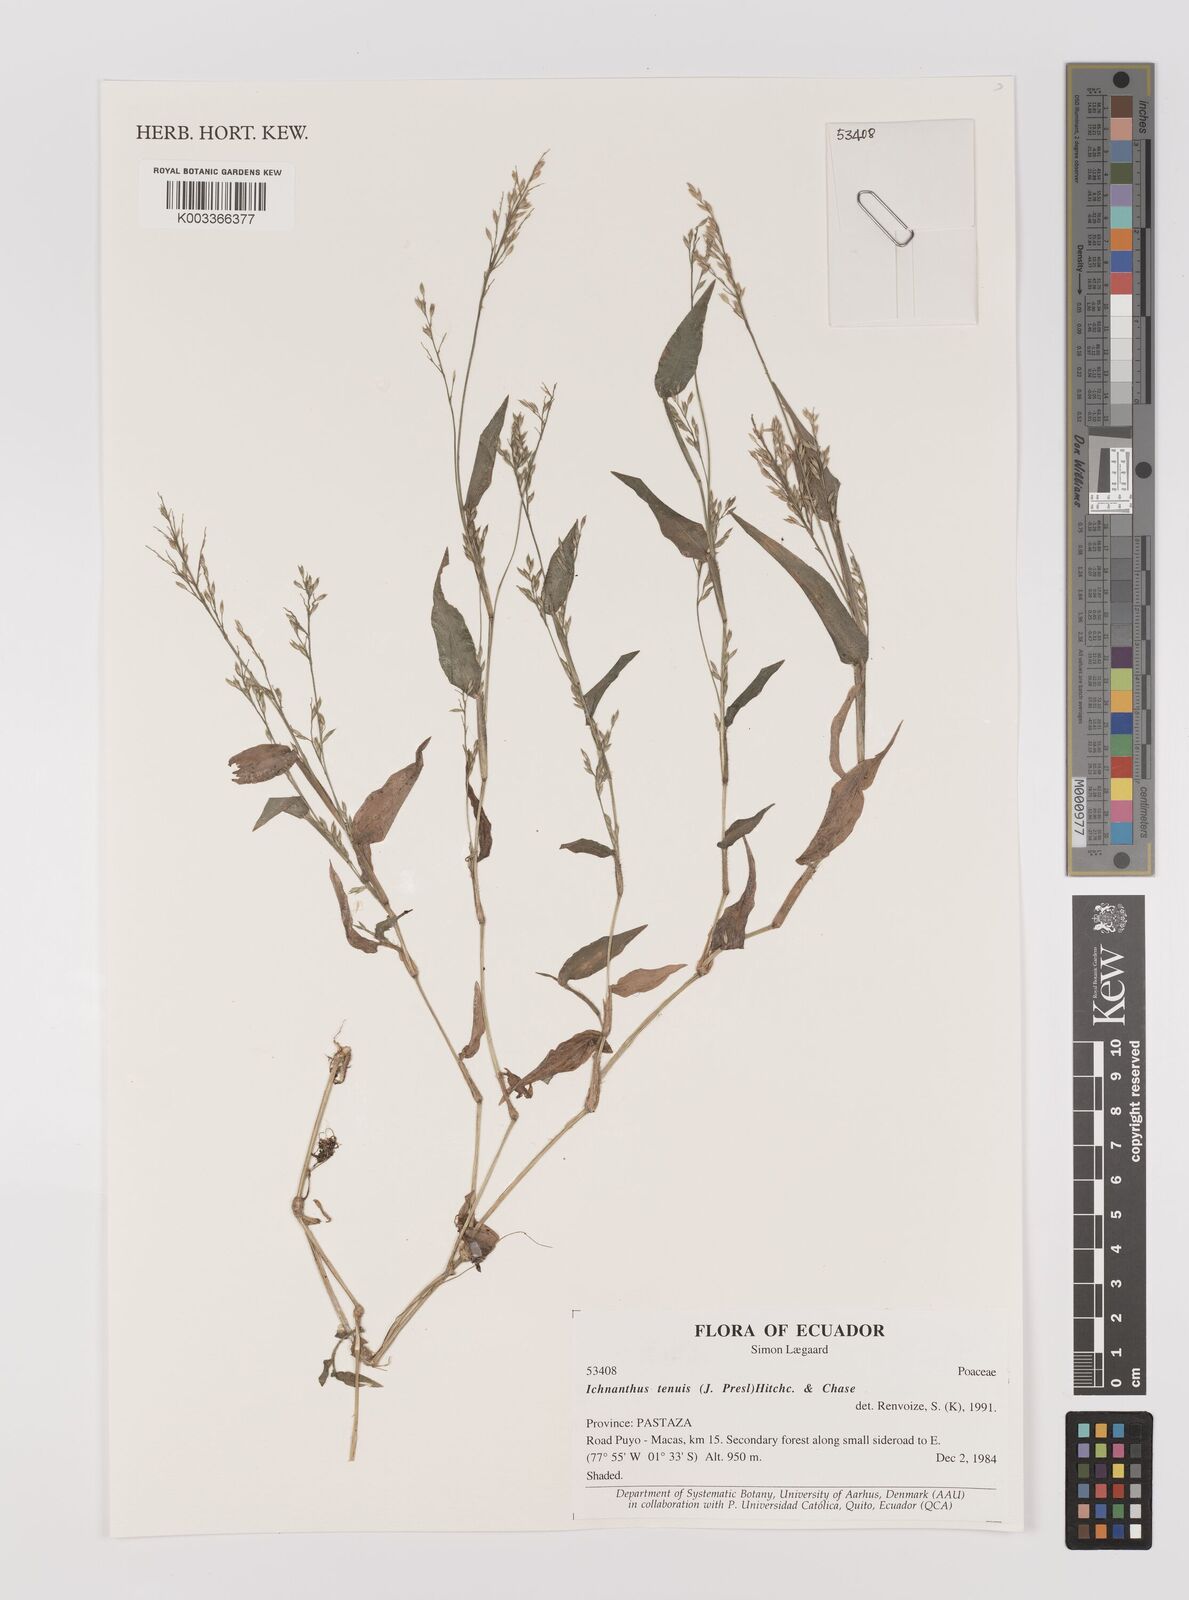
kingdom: Plantae
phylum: Tracheophyta
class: Liliopsida
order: Poales
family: Poaceae
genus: Ichnanthus
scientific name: Ichnanthus tenuis
